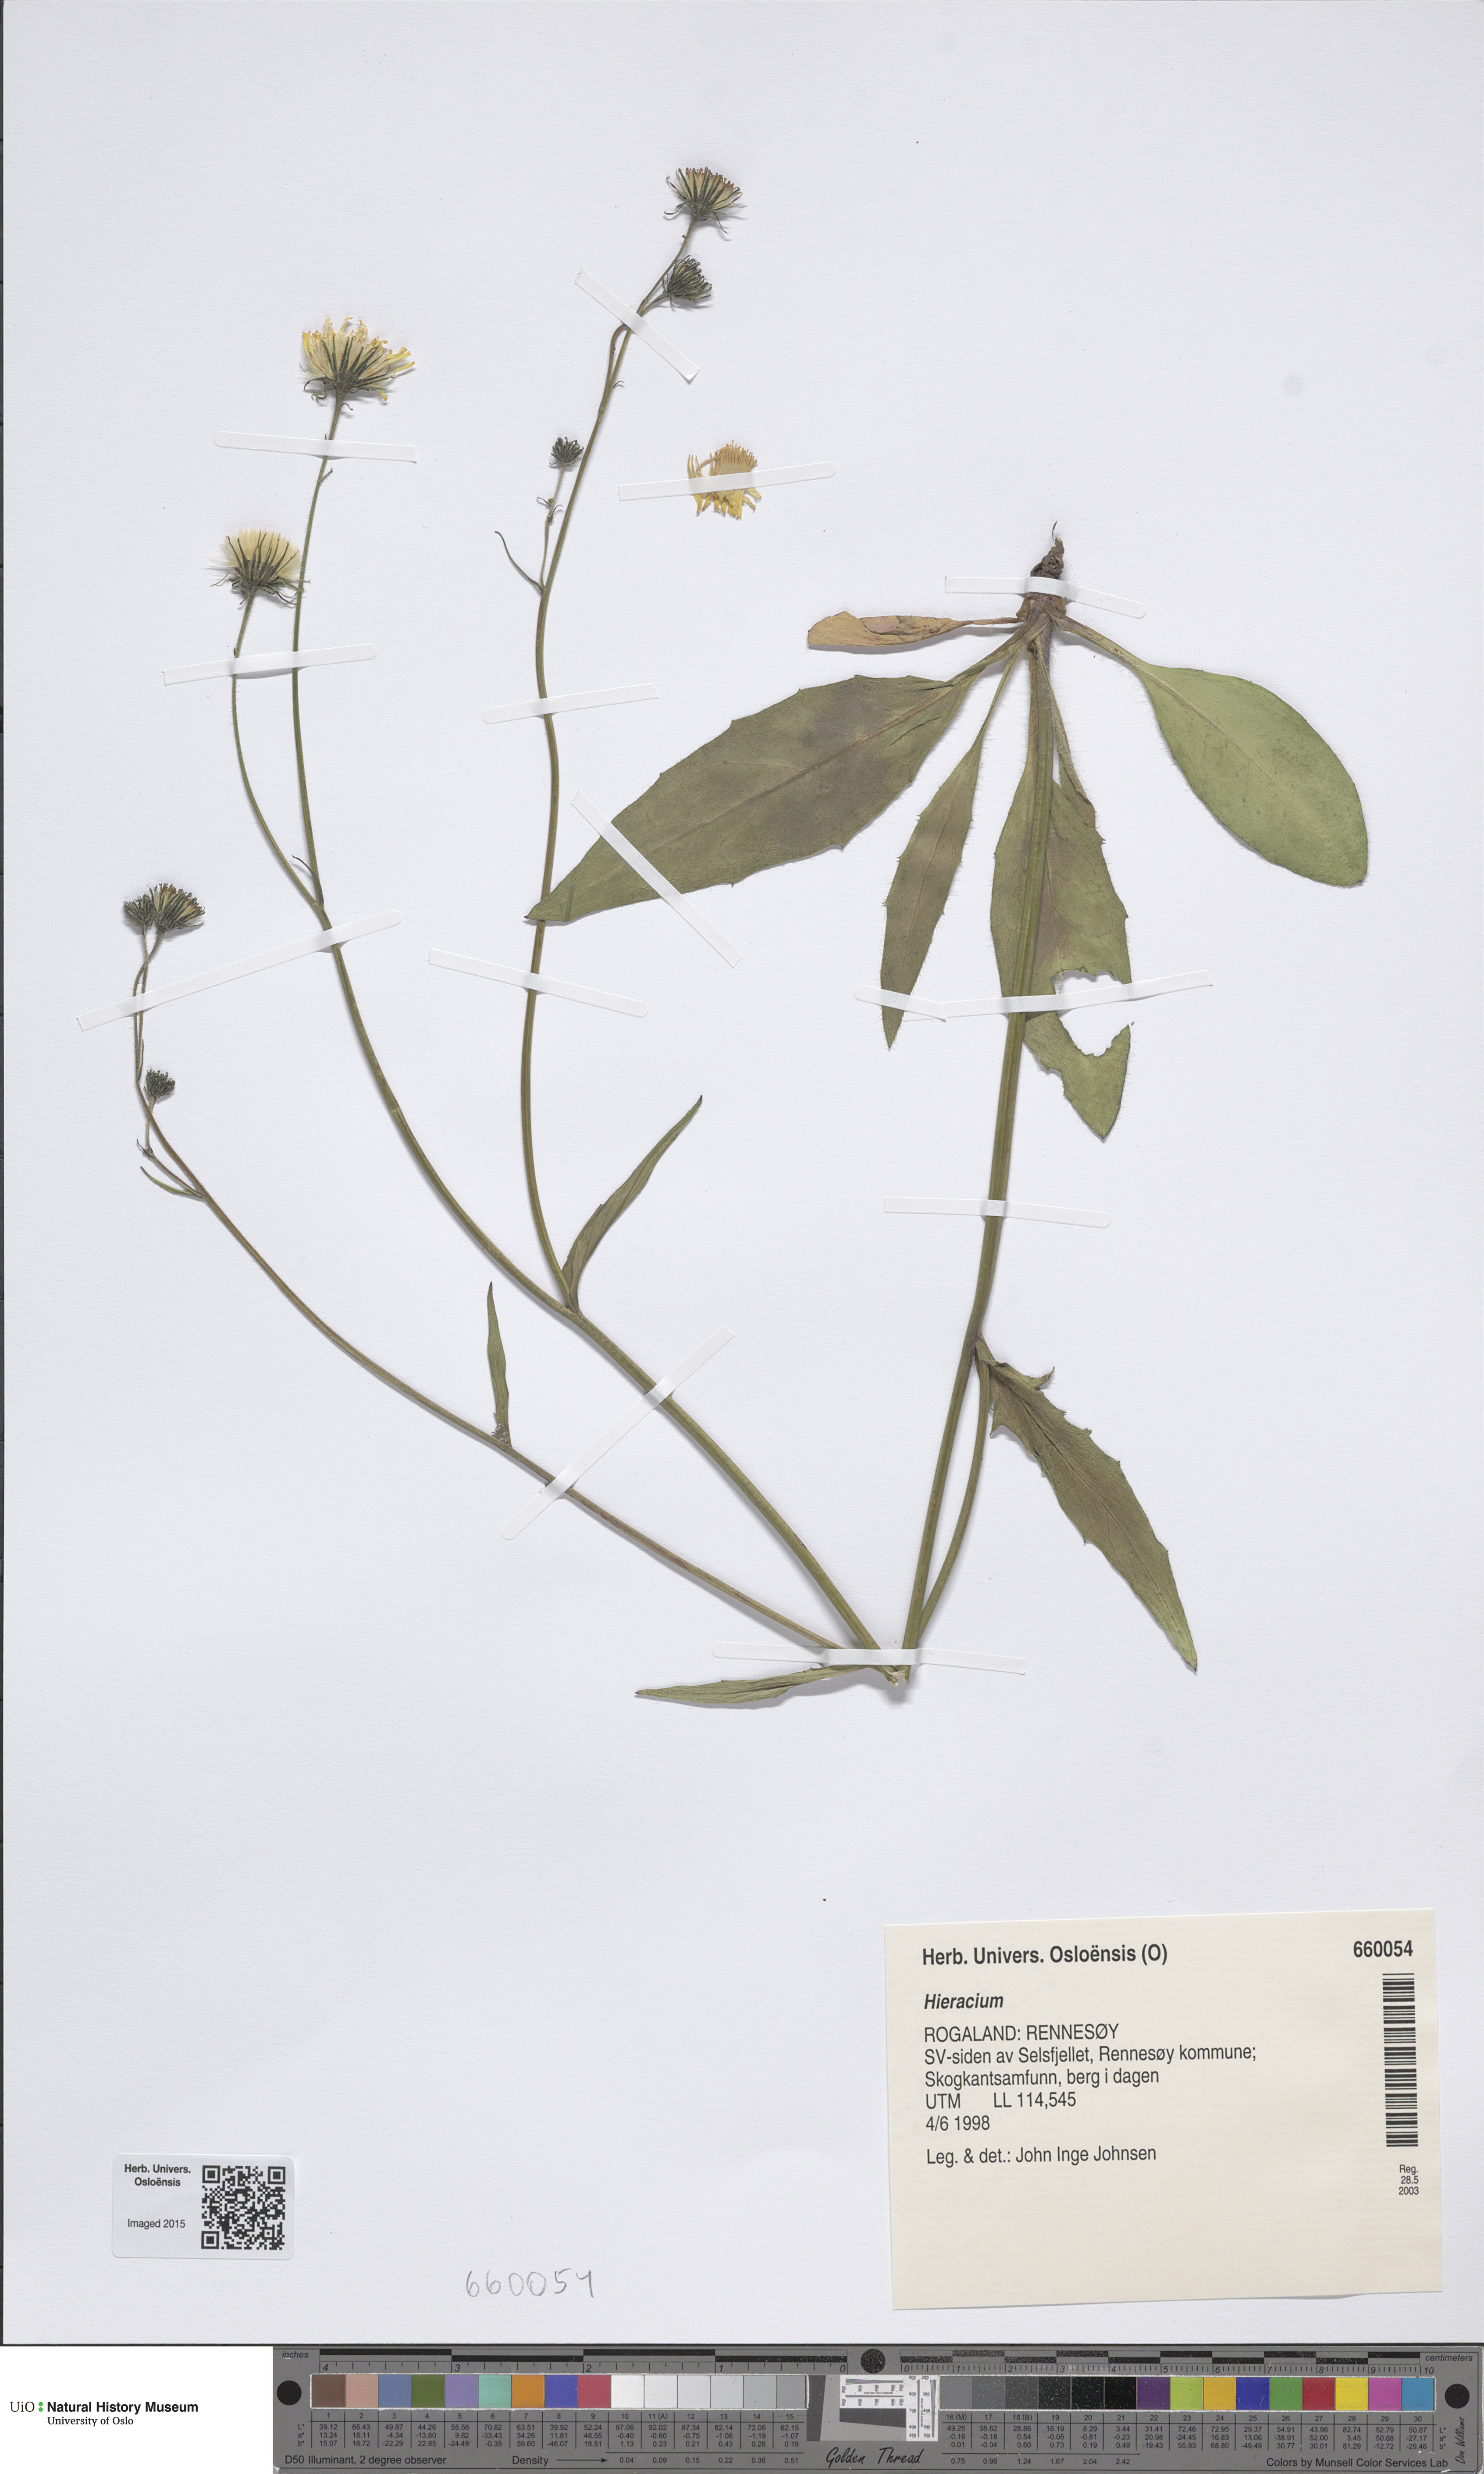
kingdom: Plantae
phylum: Tracheophyta
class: Magnoliopsida
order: Asterales
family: Asteraceae
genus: Hieracium
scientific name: Hieracium
